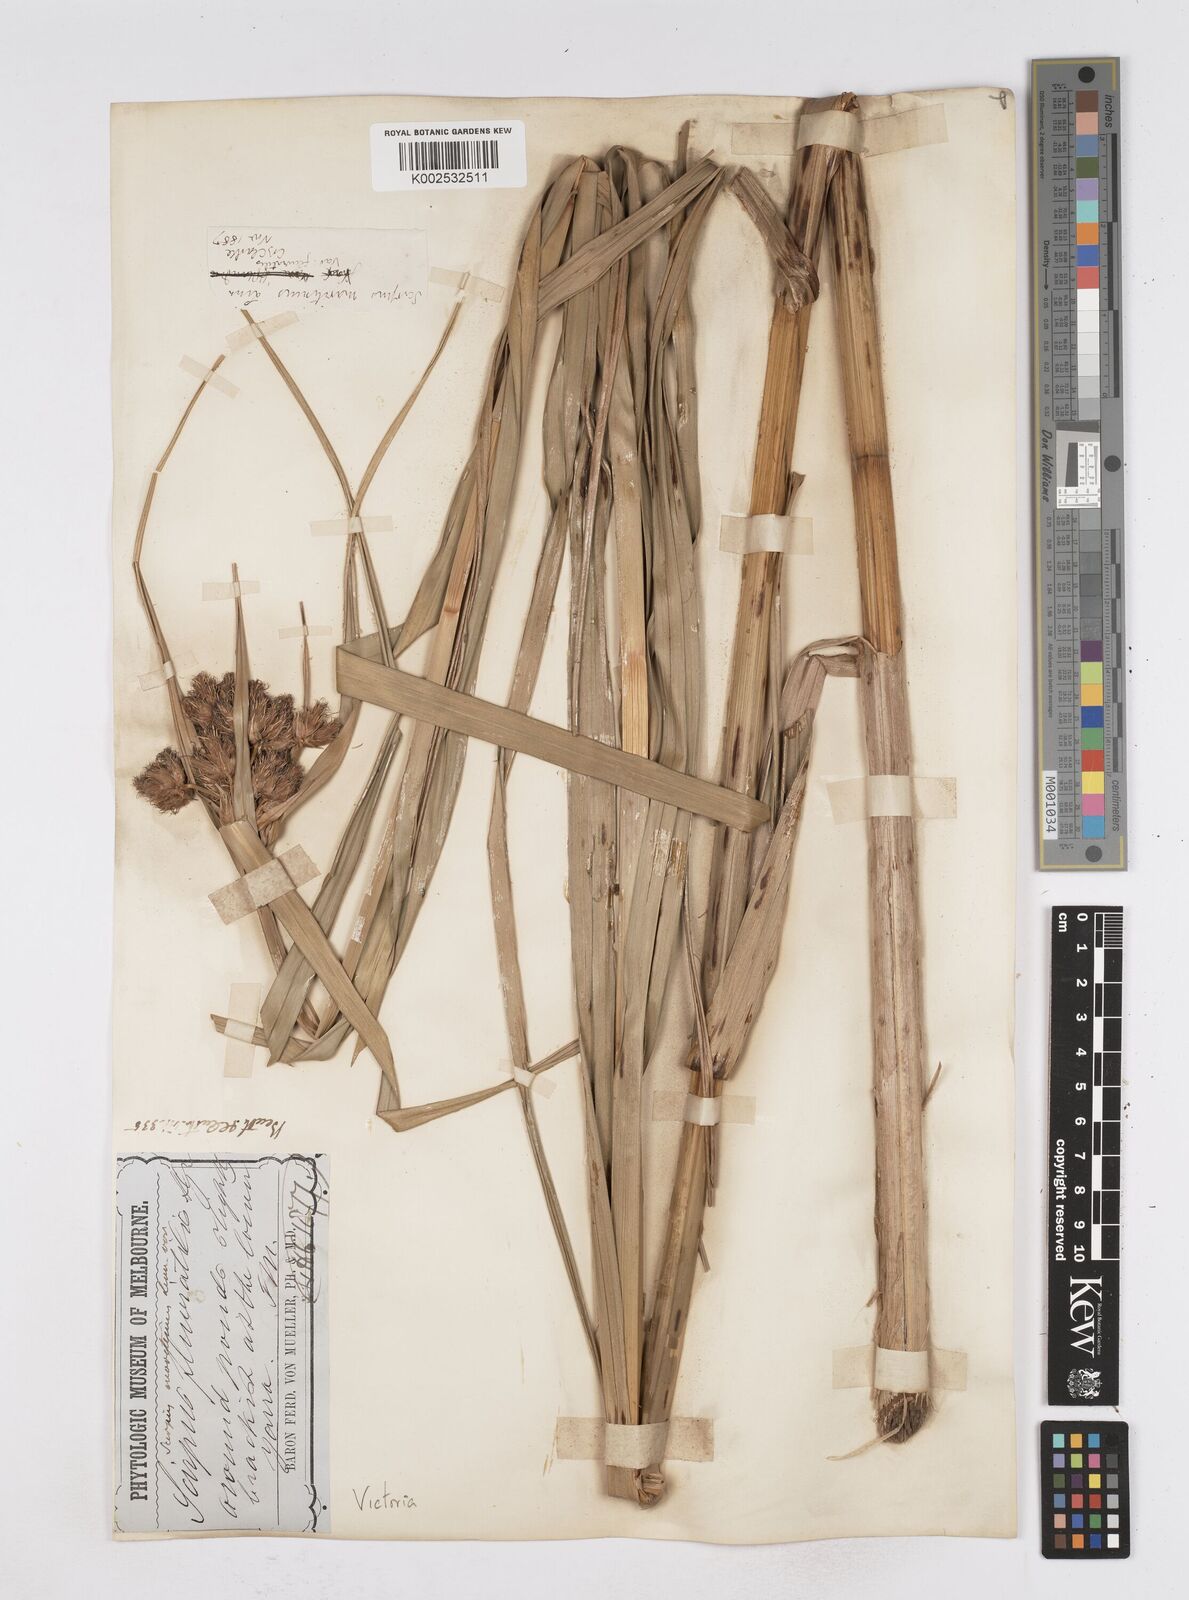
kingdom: Plantae
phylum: Tracheophyta
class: Liliopsida
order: Poales
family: Cyperaceae
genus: Bolboschoenus
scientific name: Bolboschoenus maritimus
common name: Sea club-rush
